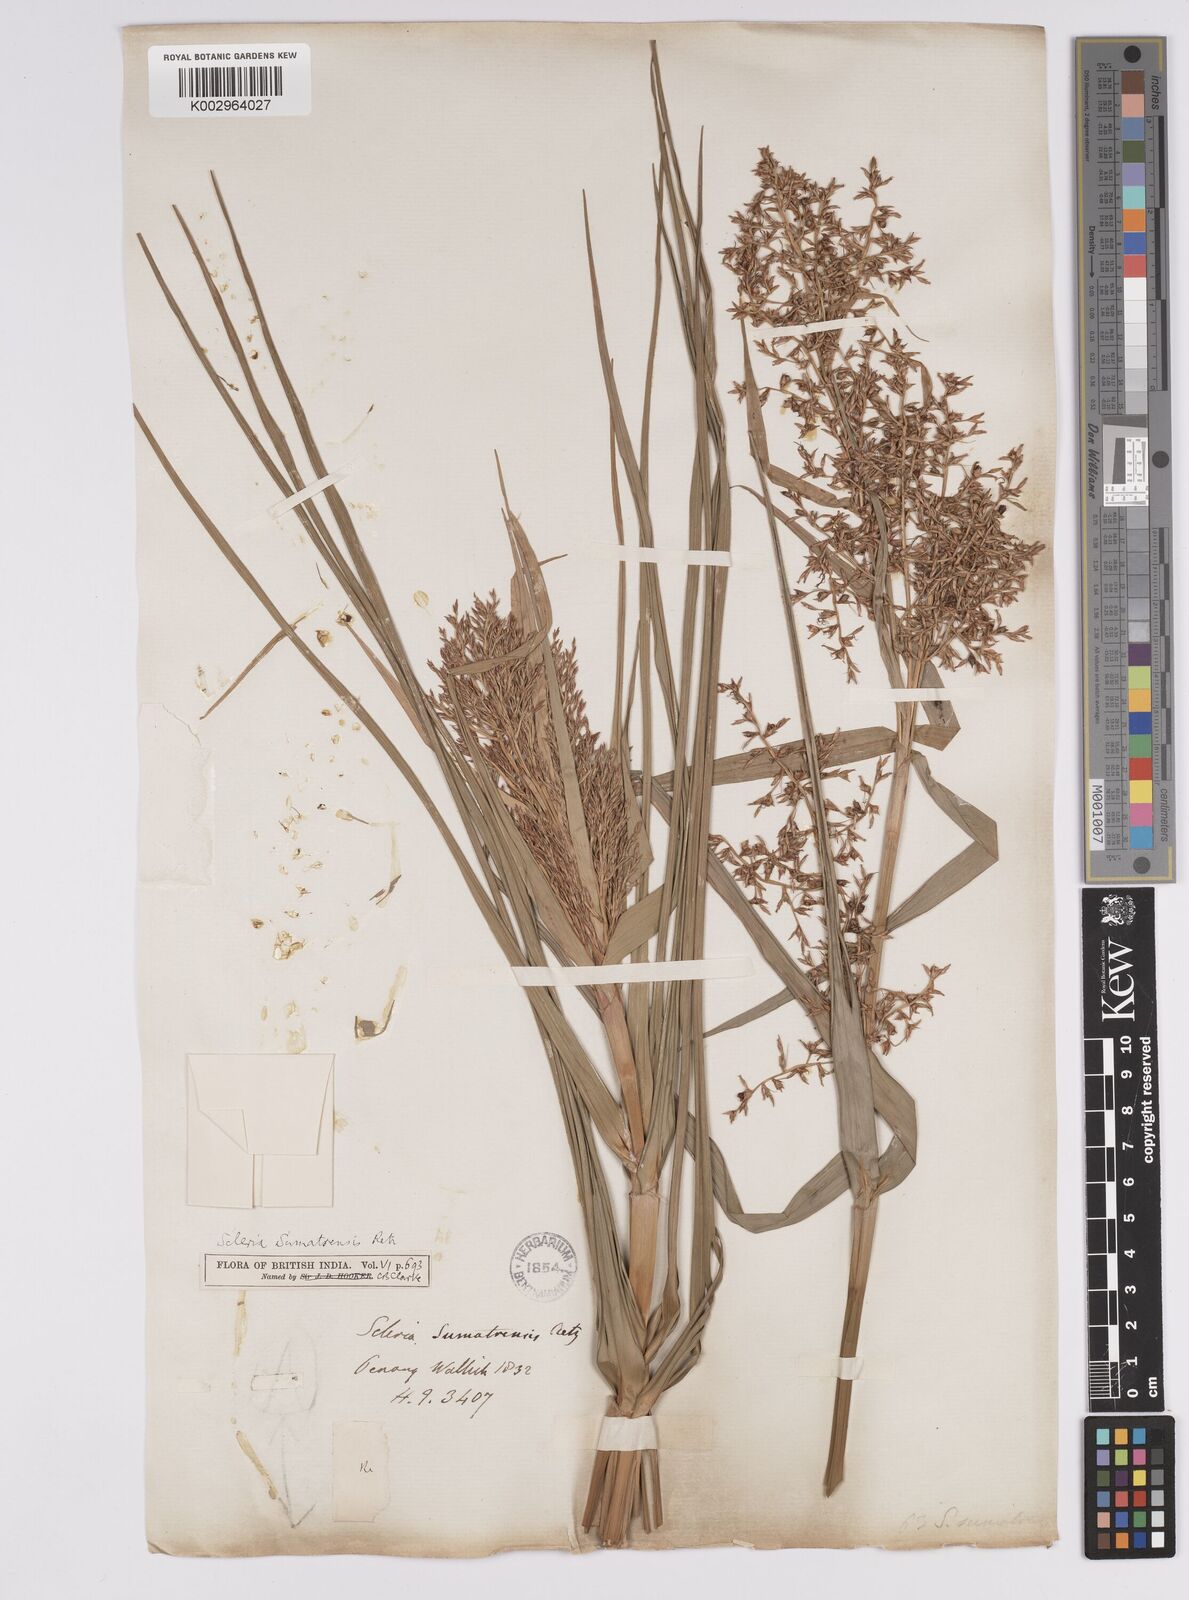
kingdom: Plantae
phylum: Tracheophyta
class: Liliopsida
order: Poales
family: Cyperaceae
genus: Scleria
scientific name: Scleria sumatrensis
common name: Sumatran scleria
